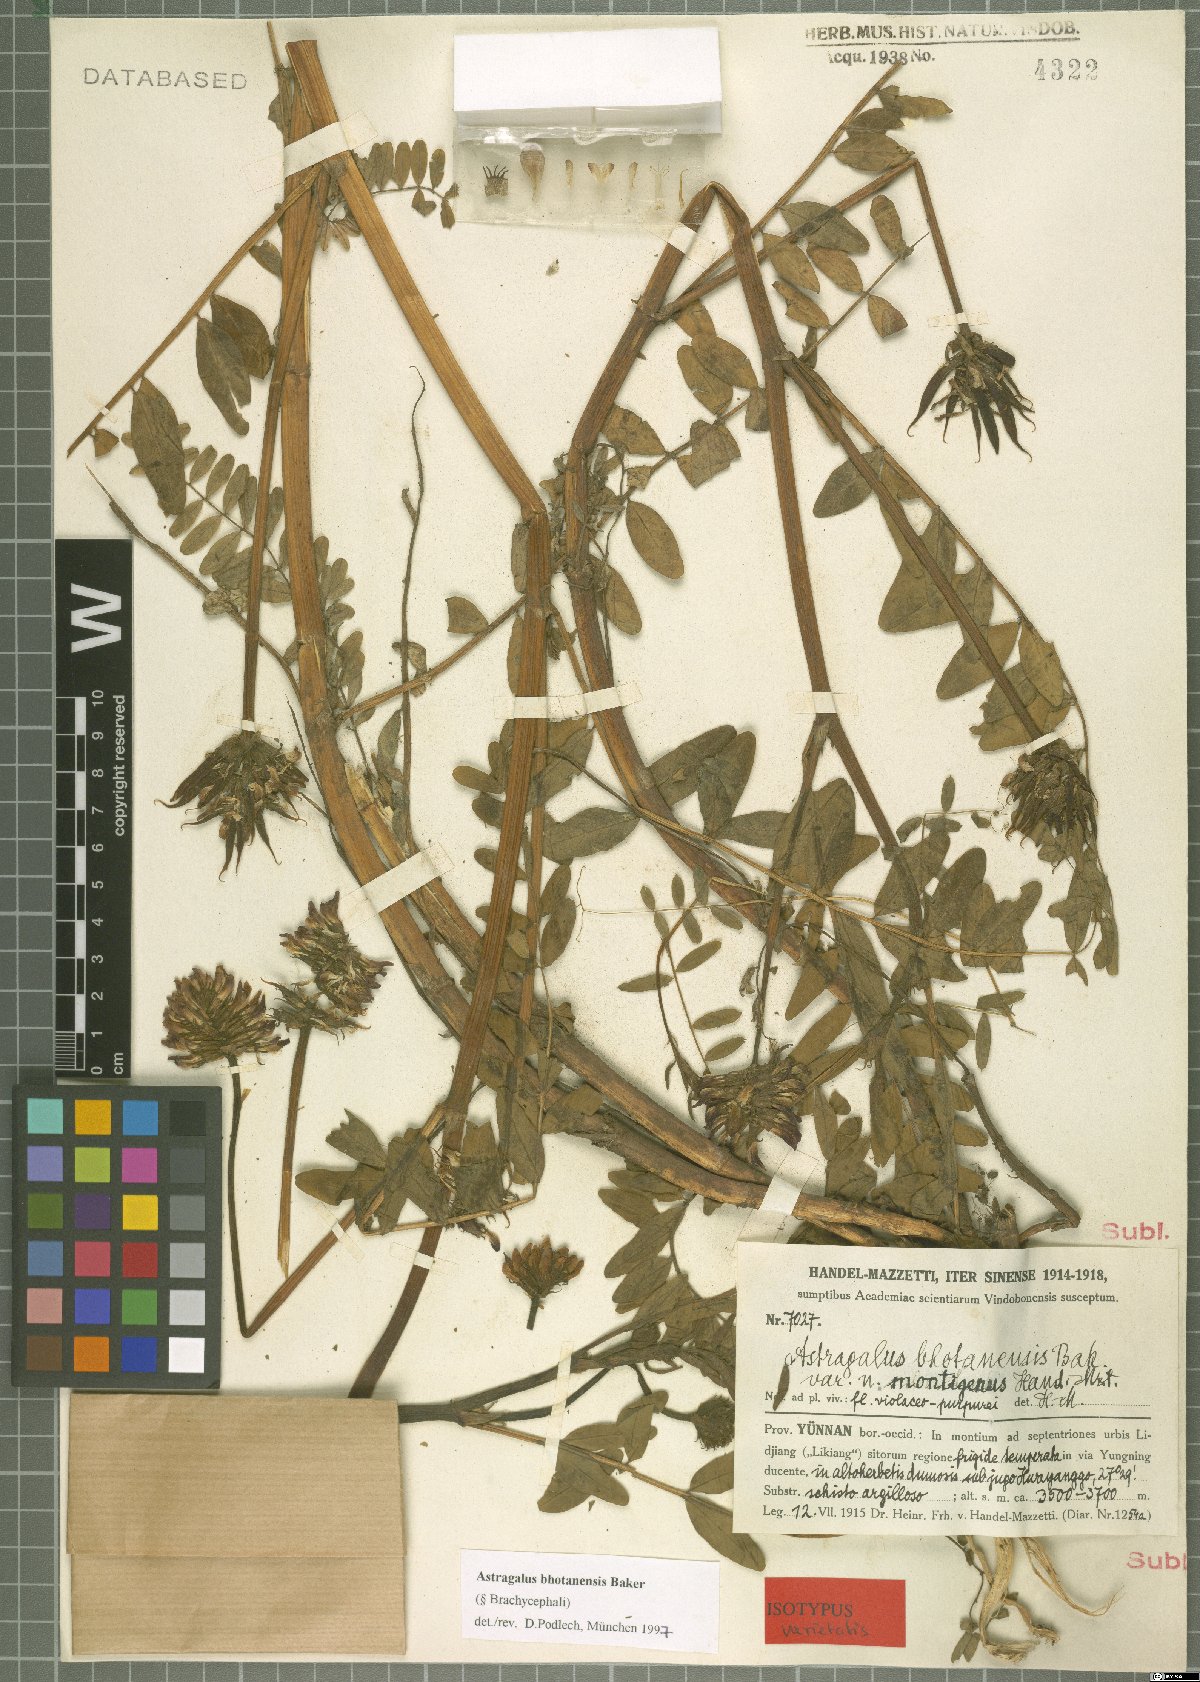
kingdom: Plantae
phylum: Tracheophyta
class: Magnoliopsida
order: Fabales
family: Fabaceae
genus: Astragalus
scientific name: Astragalus bhotanensis
